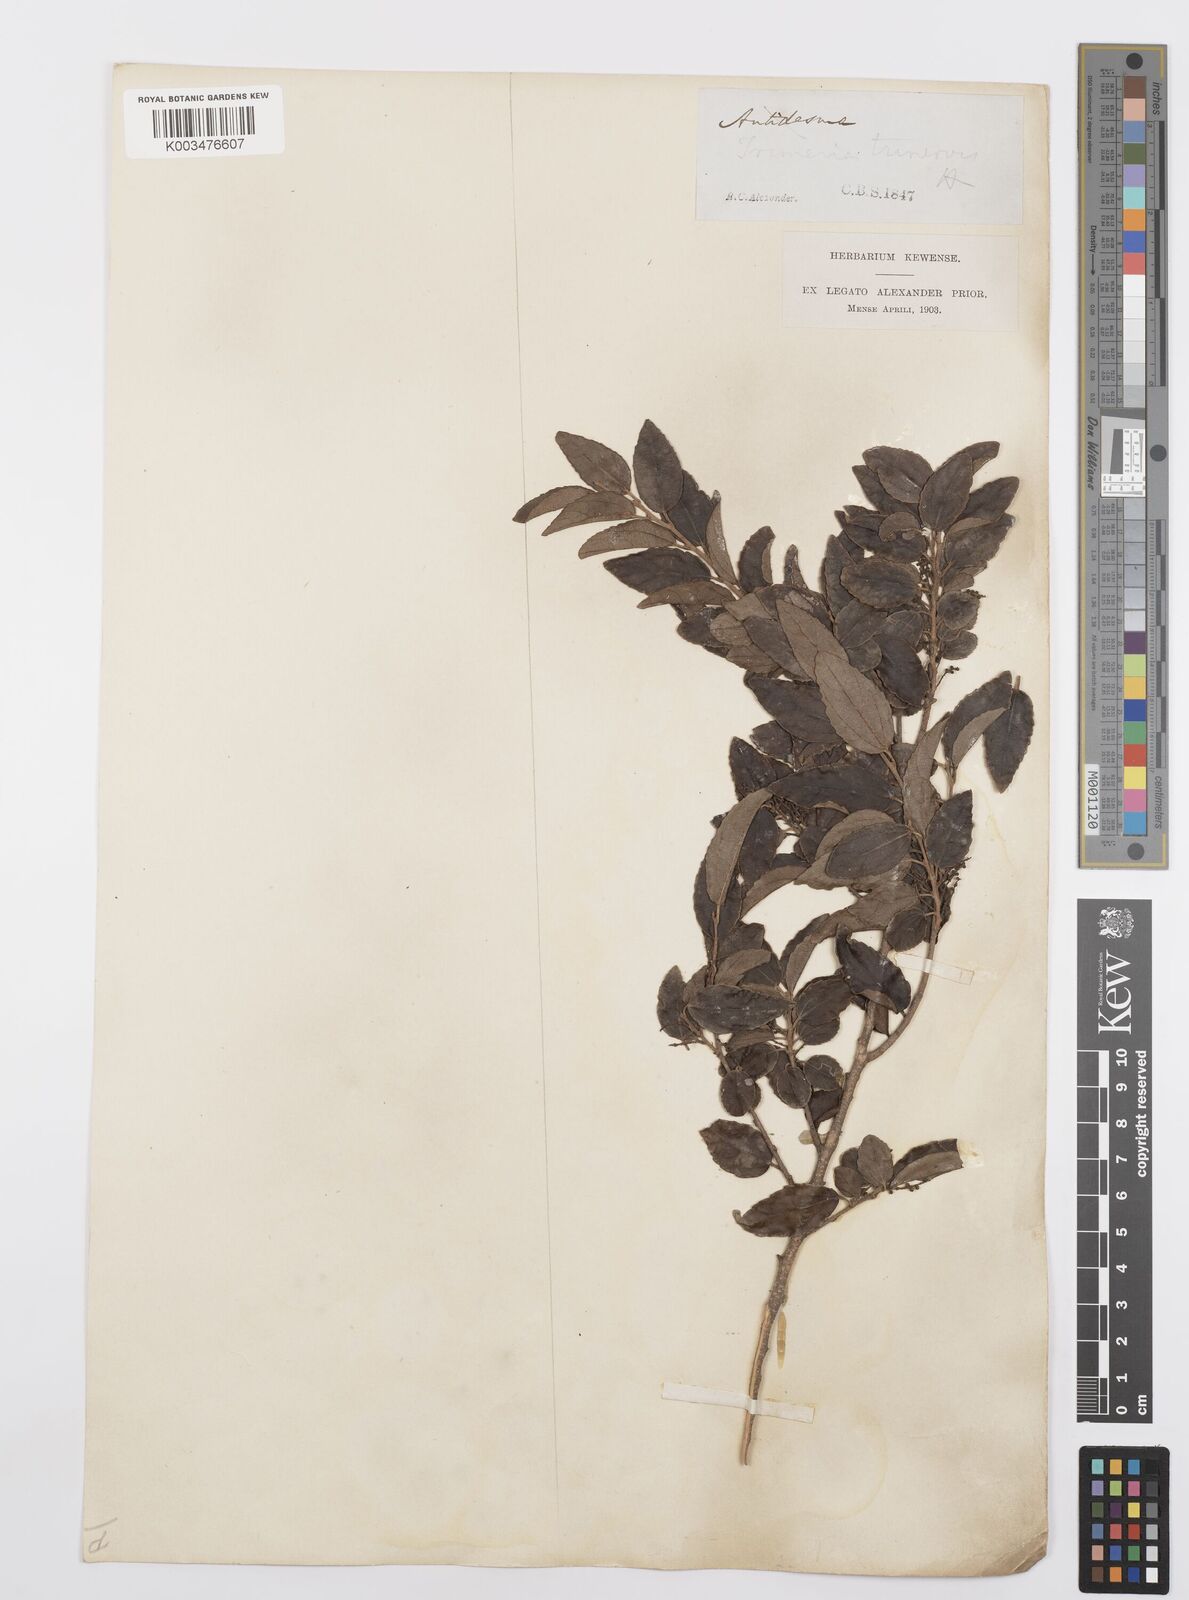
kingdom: Plantae
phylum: Tracheophyta
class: Magnoliopsida
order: Malpighiales
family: Salicaceae
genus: Trimeria
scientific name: Trimeria trinervis
